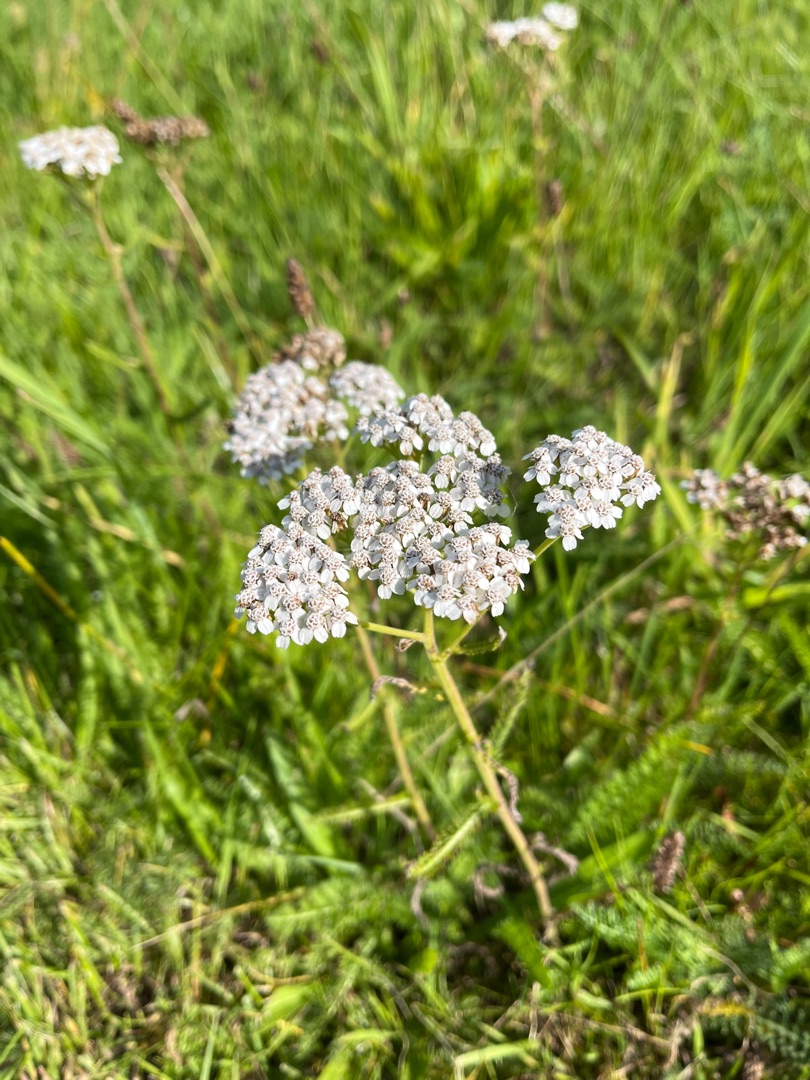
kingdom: Plantae
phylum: Tracheophyta
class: Magnoliopsida
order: Asterales
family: Asteraceae
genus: Achillea
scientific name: Achillea millefolium
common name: Almindelig røllike
